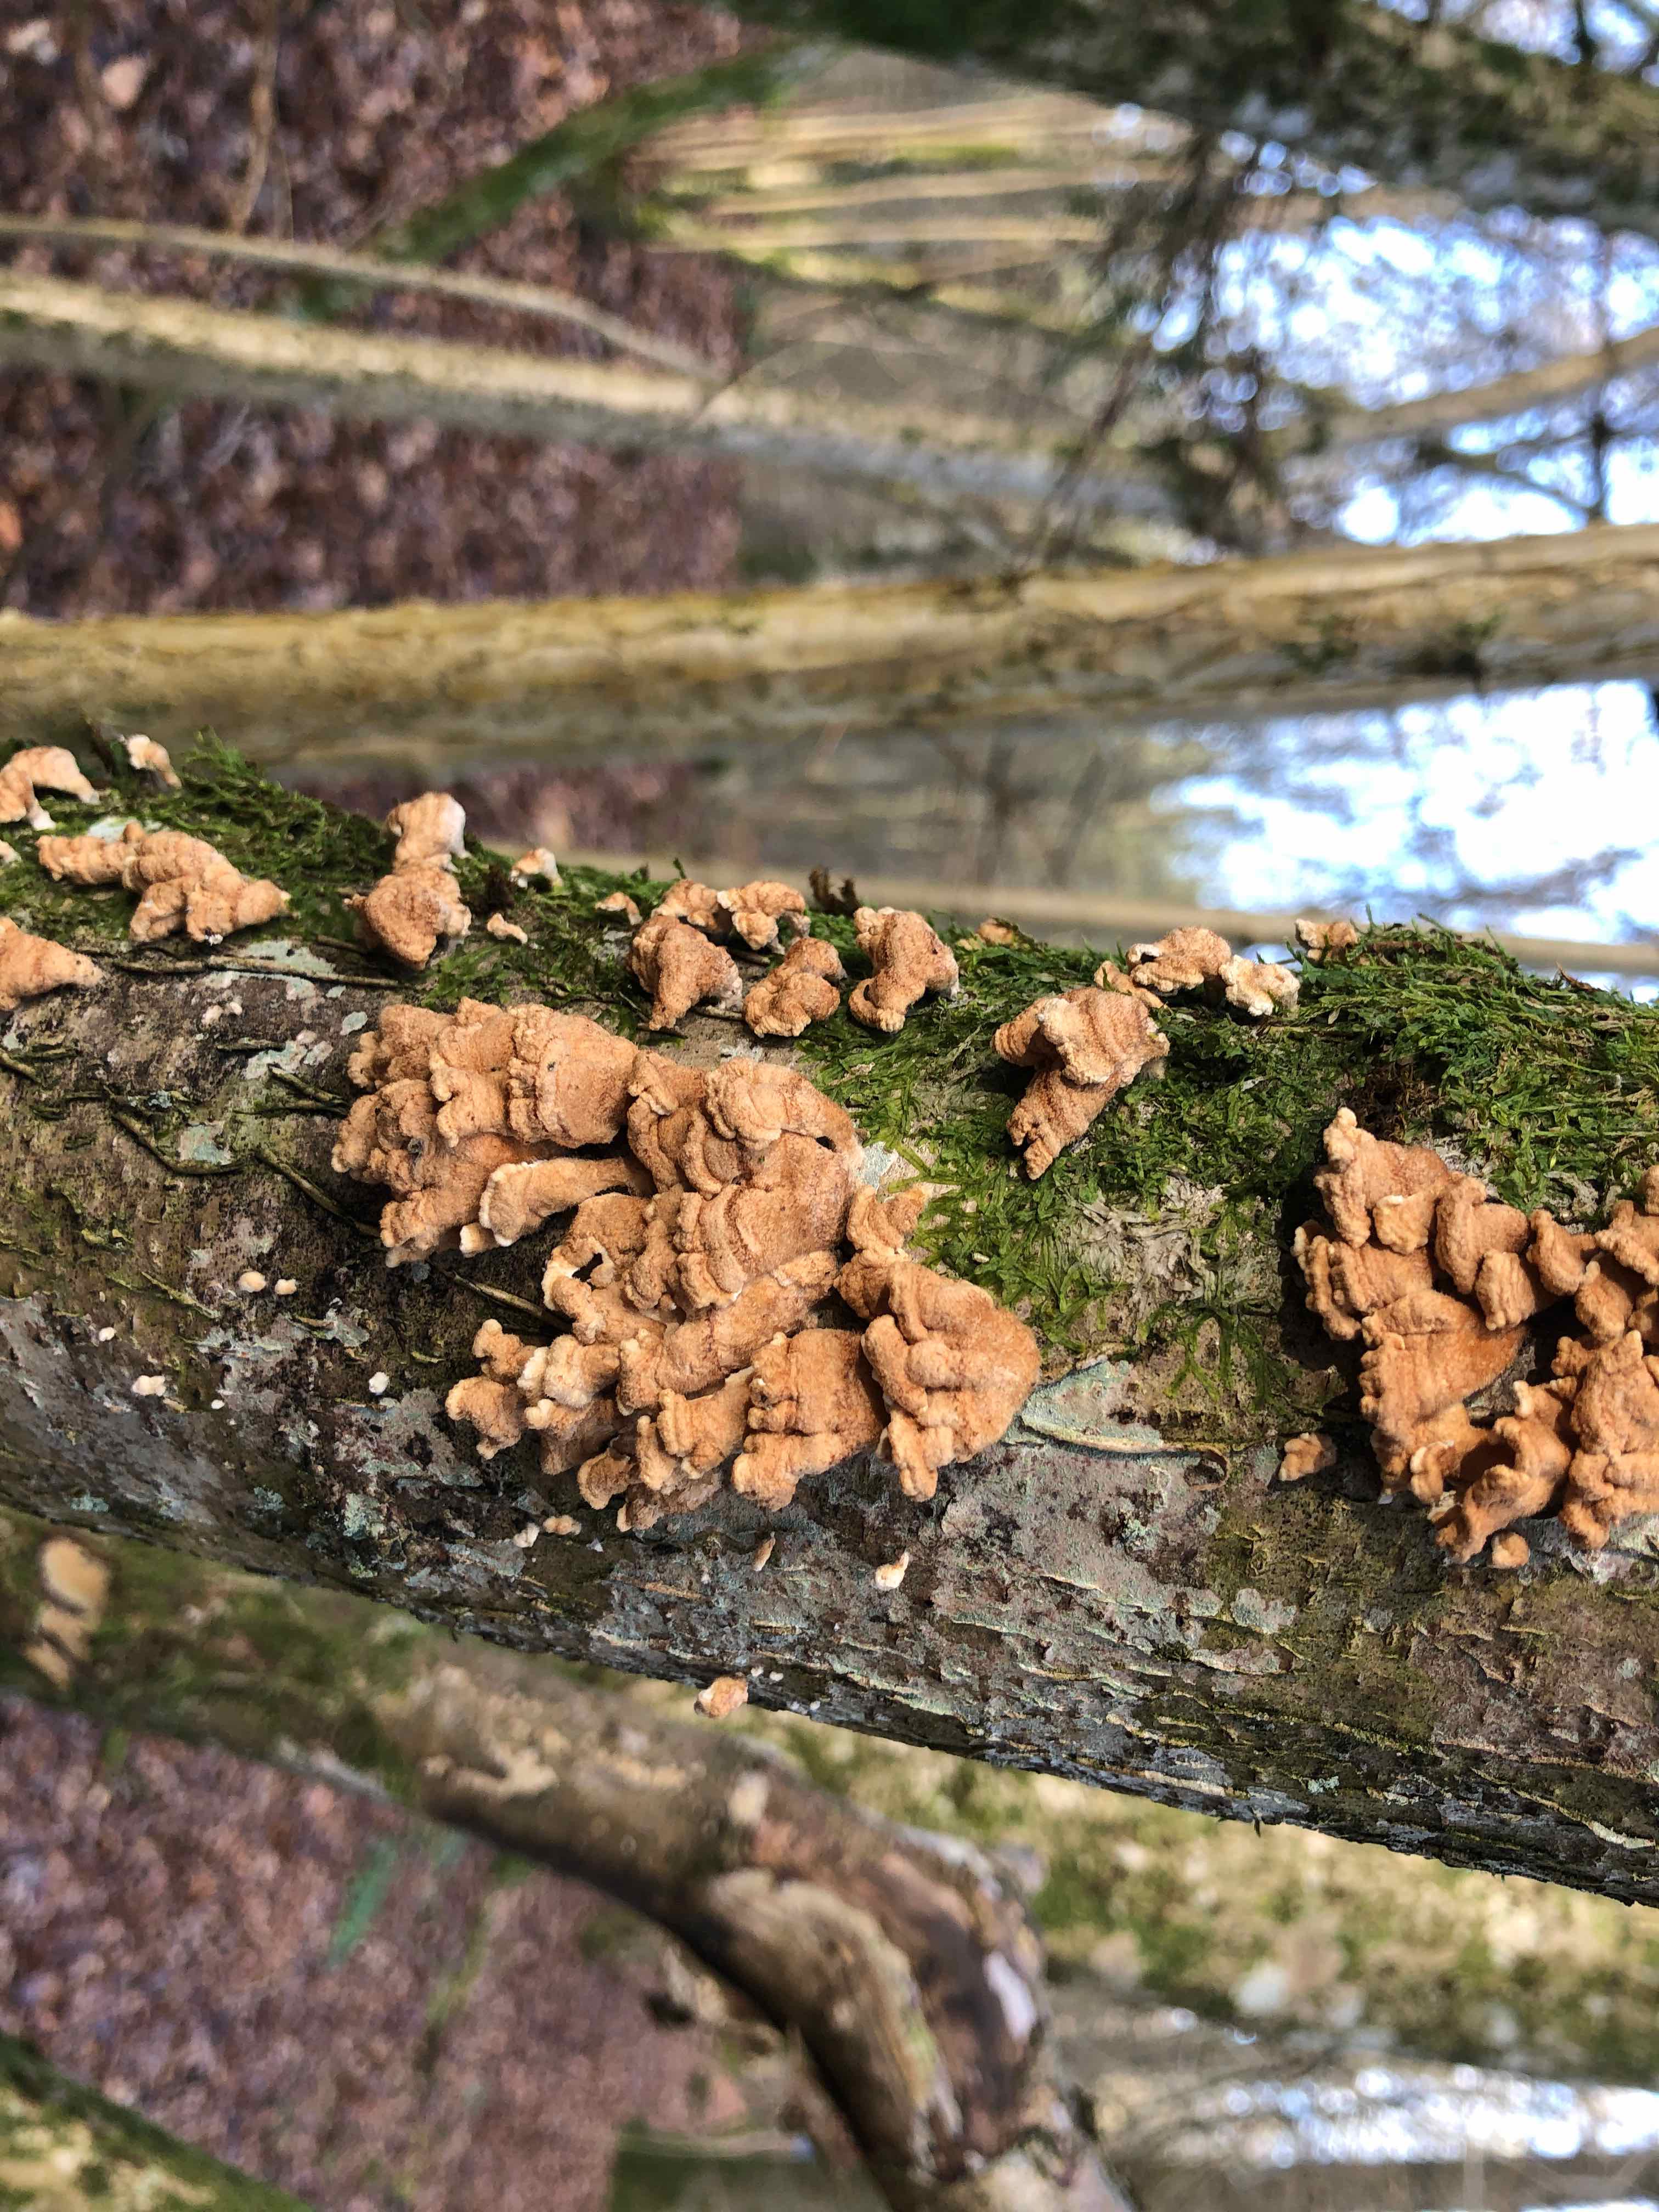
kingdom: Fungi
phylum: Basidiomycota
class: Agaricomycetes
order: Amylocorticiales
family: Amylocorticiaceae
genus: Plicaturopsis
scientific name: Plicaturopsis crispa
